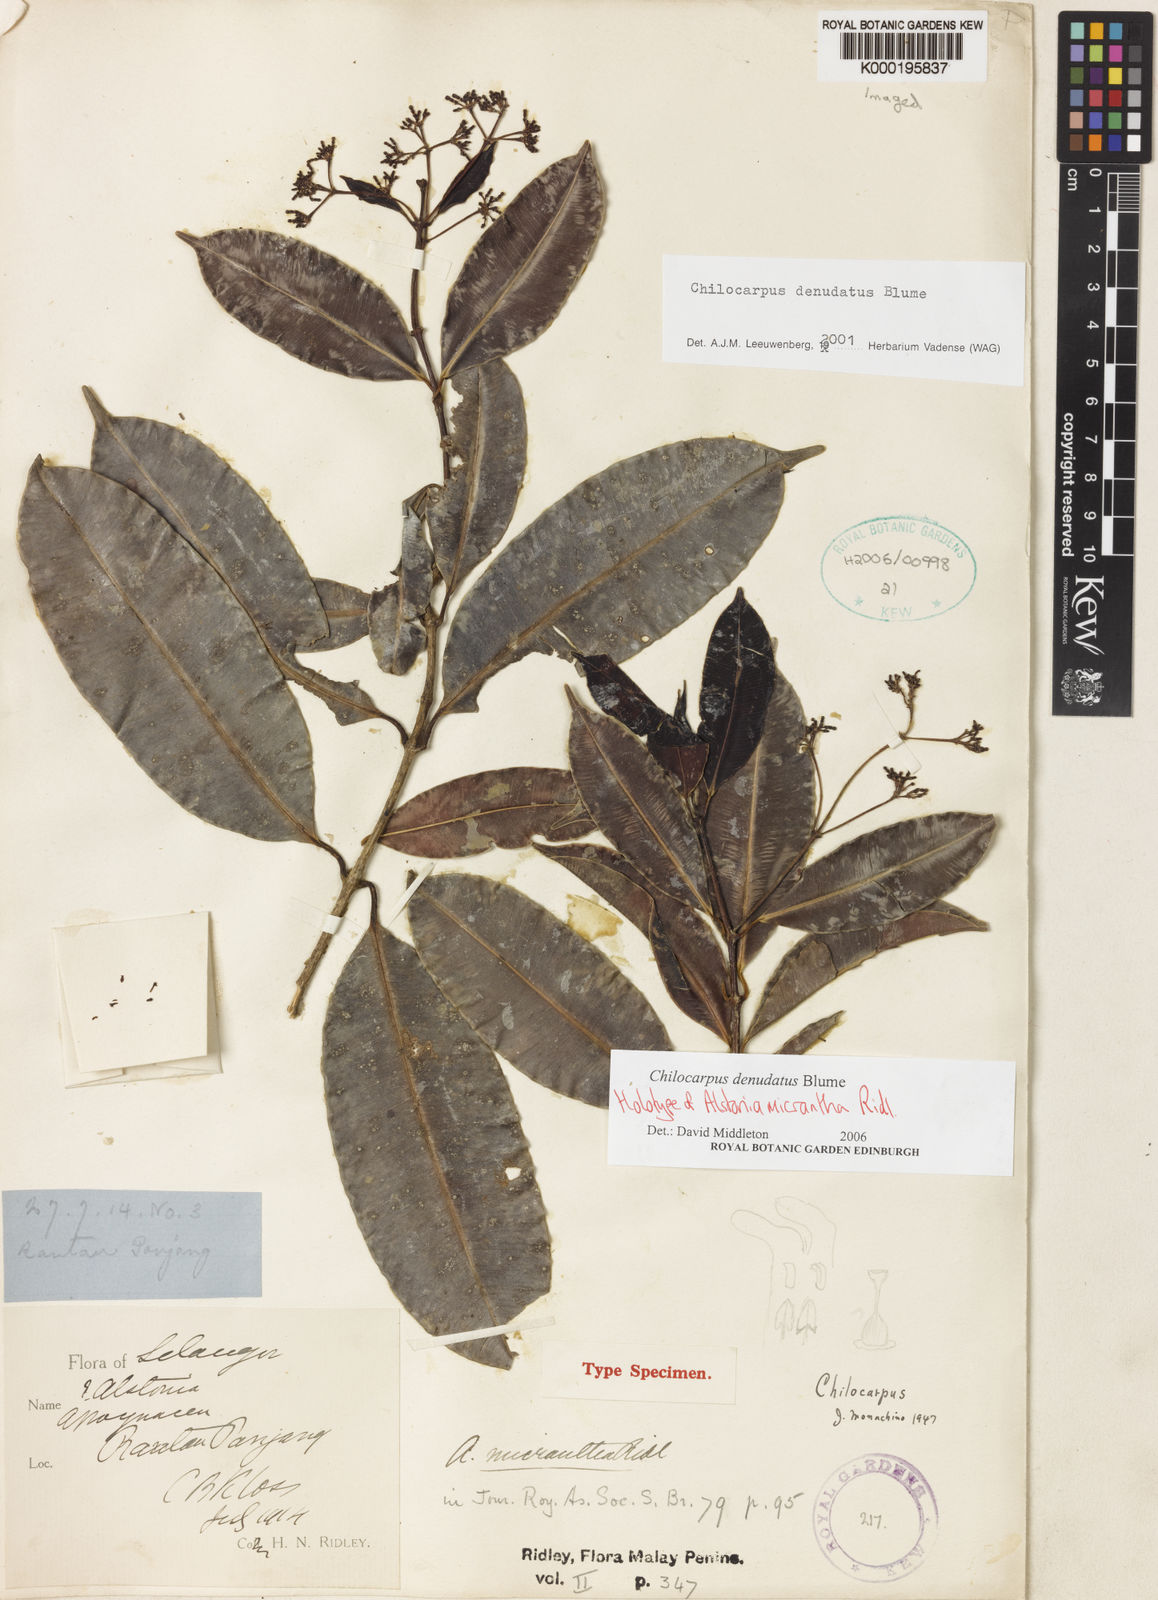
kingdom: Plantae
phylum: Tracheophyta
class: Magnoliopsida
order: Gentianales
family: Apocynaceae
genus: Chilocarpus
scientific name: Chilocarpus denudatus
